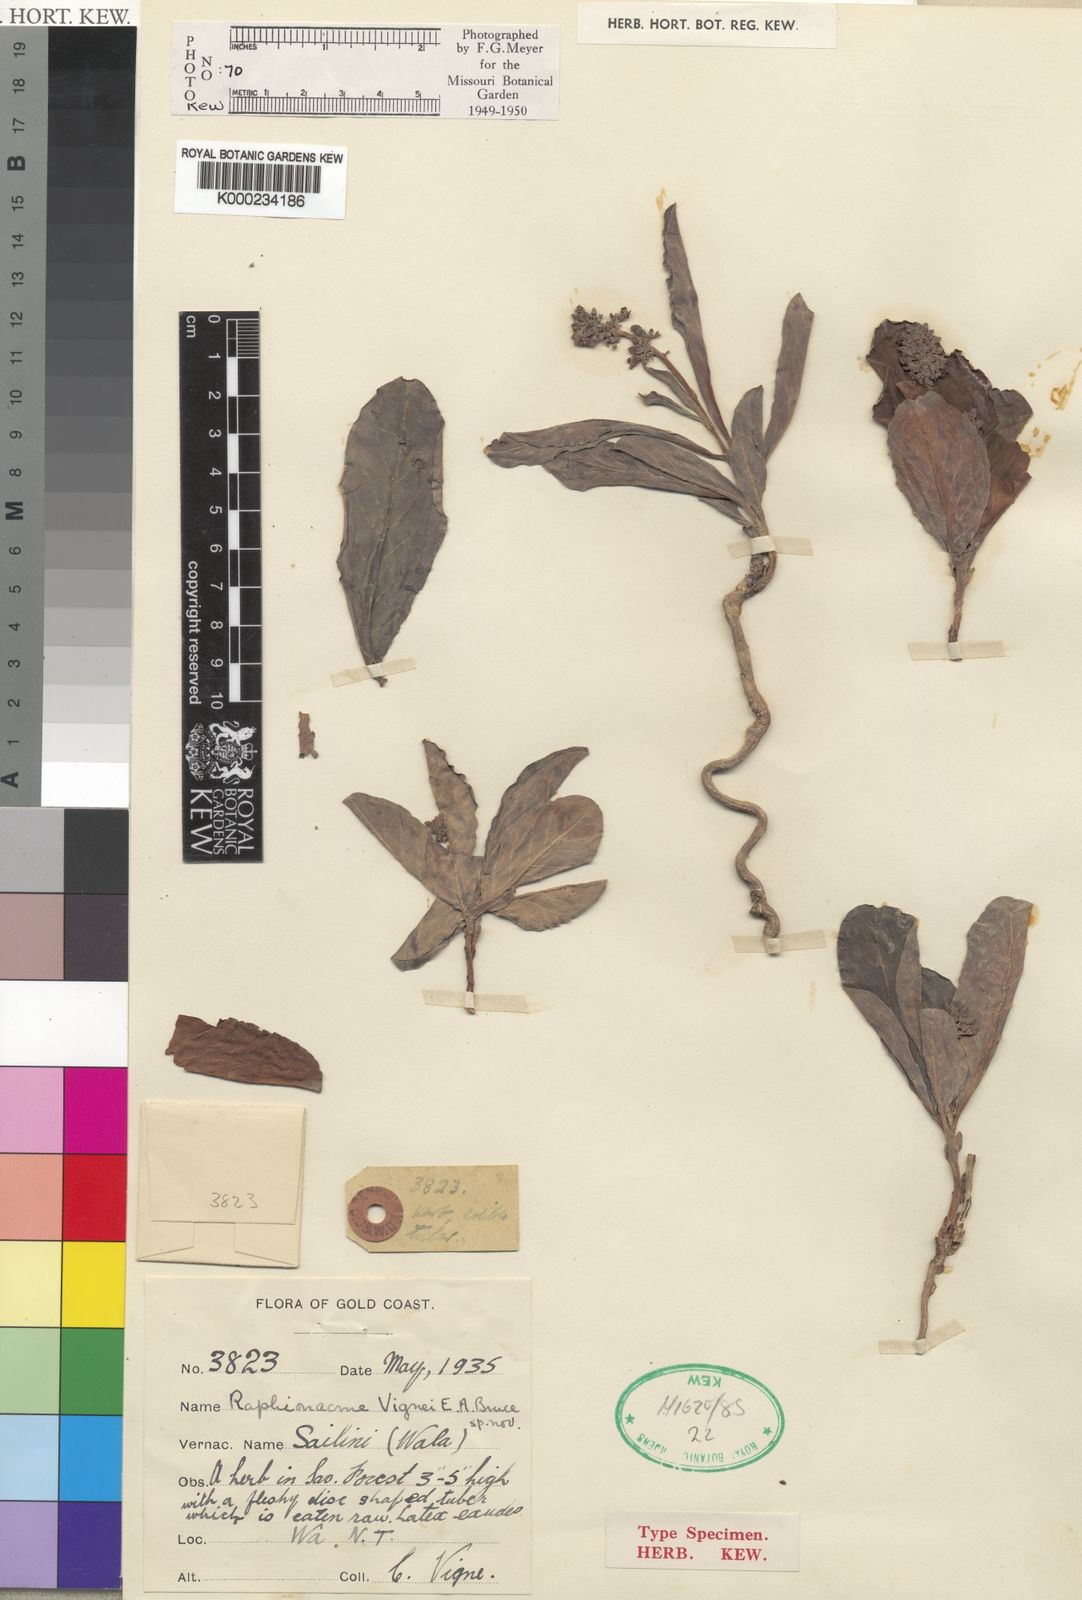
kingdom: Plantae
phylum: Tracheophyta
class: Magnoliopsida
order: Gentianales
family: Apocynaceae
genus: Raphionacme
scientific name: Raphionacme vignei
